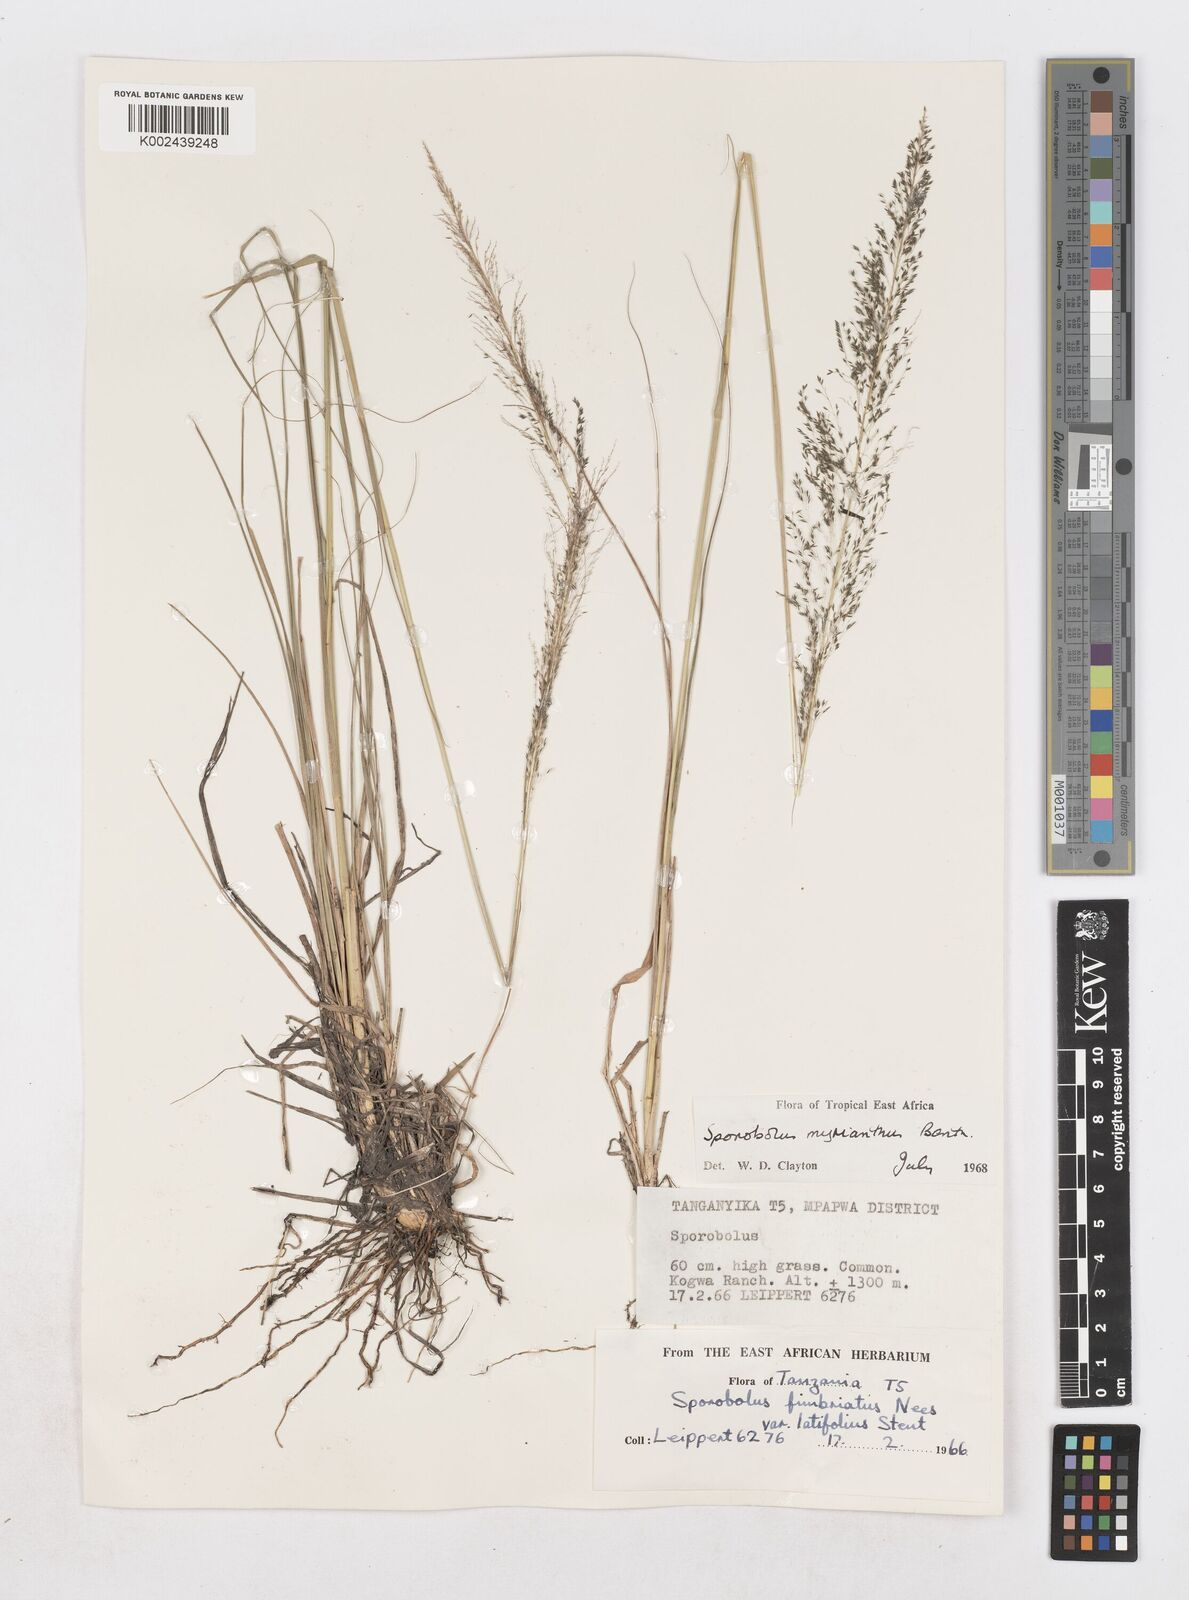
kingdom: Plantae
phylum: Tracheophyta
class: Liliopsida
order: Poales
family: Poaceae
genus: Sporobolus
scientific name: Sporobolus myrianthus
